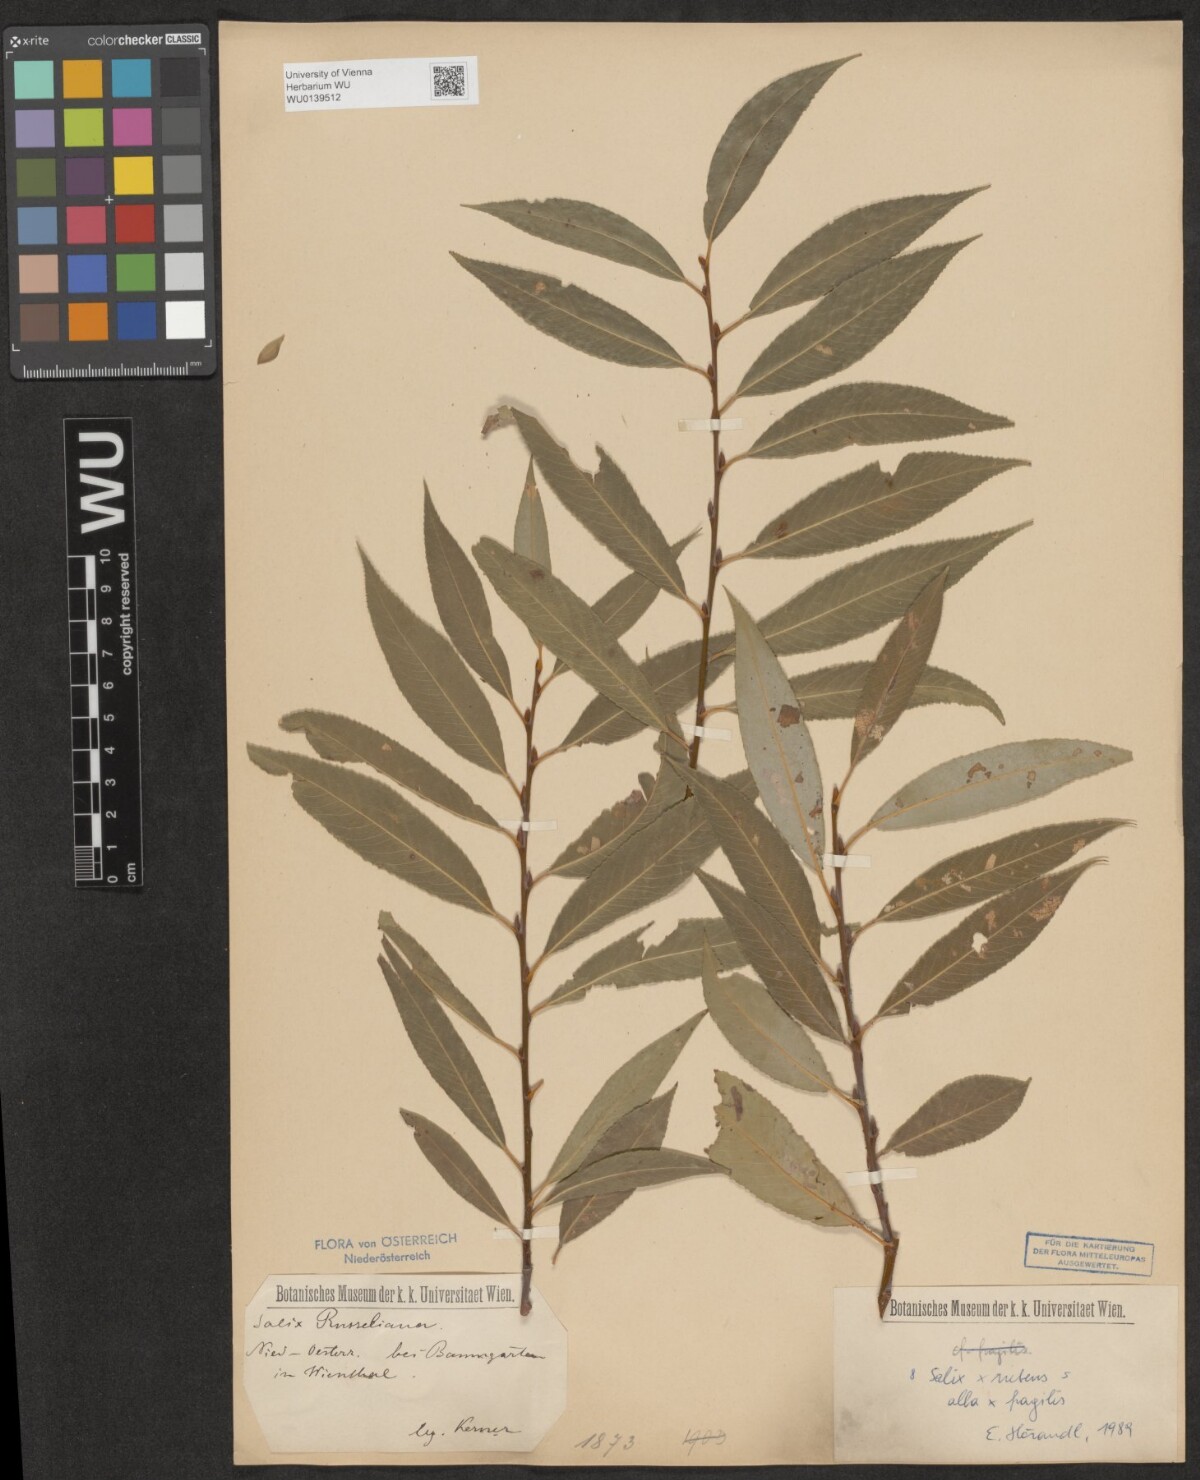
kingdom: Plantae
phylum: Tracheophyta
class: Magnoliopsida
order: Malpighiales
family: Salicaceae
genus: Salix
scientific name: Salix rubens
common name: Hybrid crack willow
